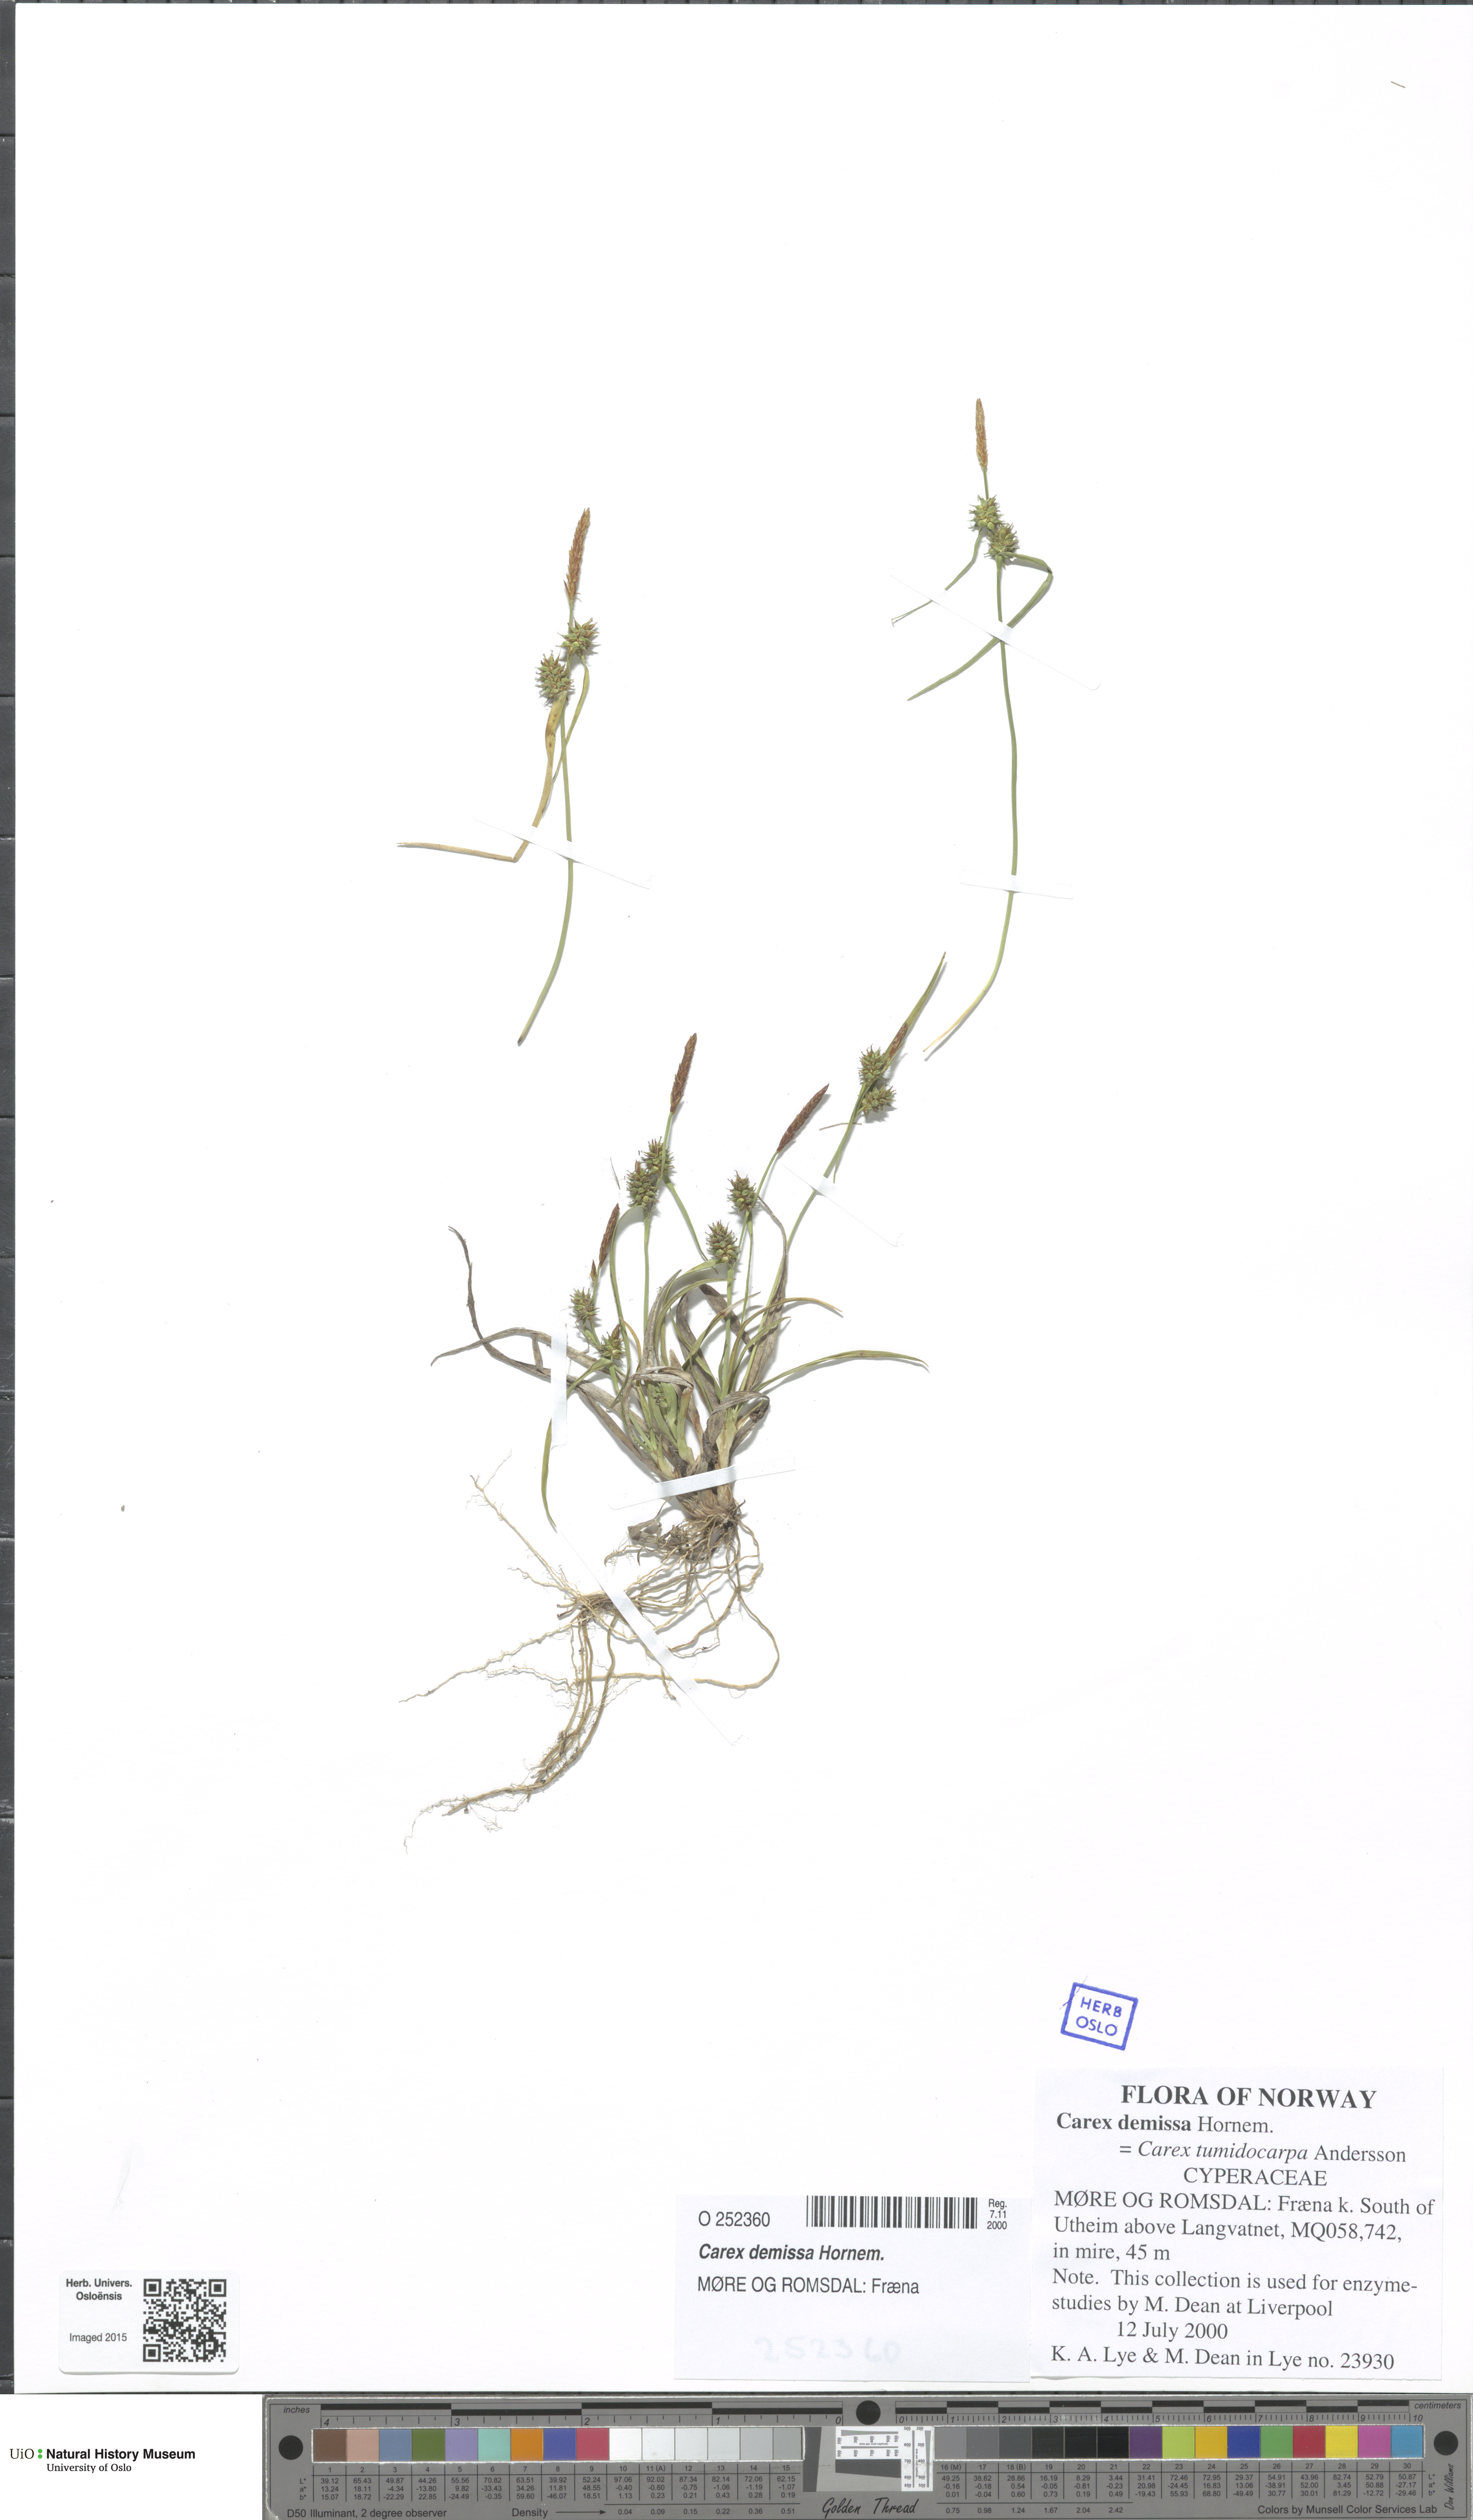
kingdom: Plantae
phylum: Tracheophyta
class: Liliopsida
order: Poales
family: Cyperaceae
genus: Carex
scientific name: Carex demissa
